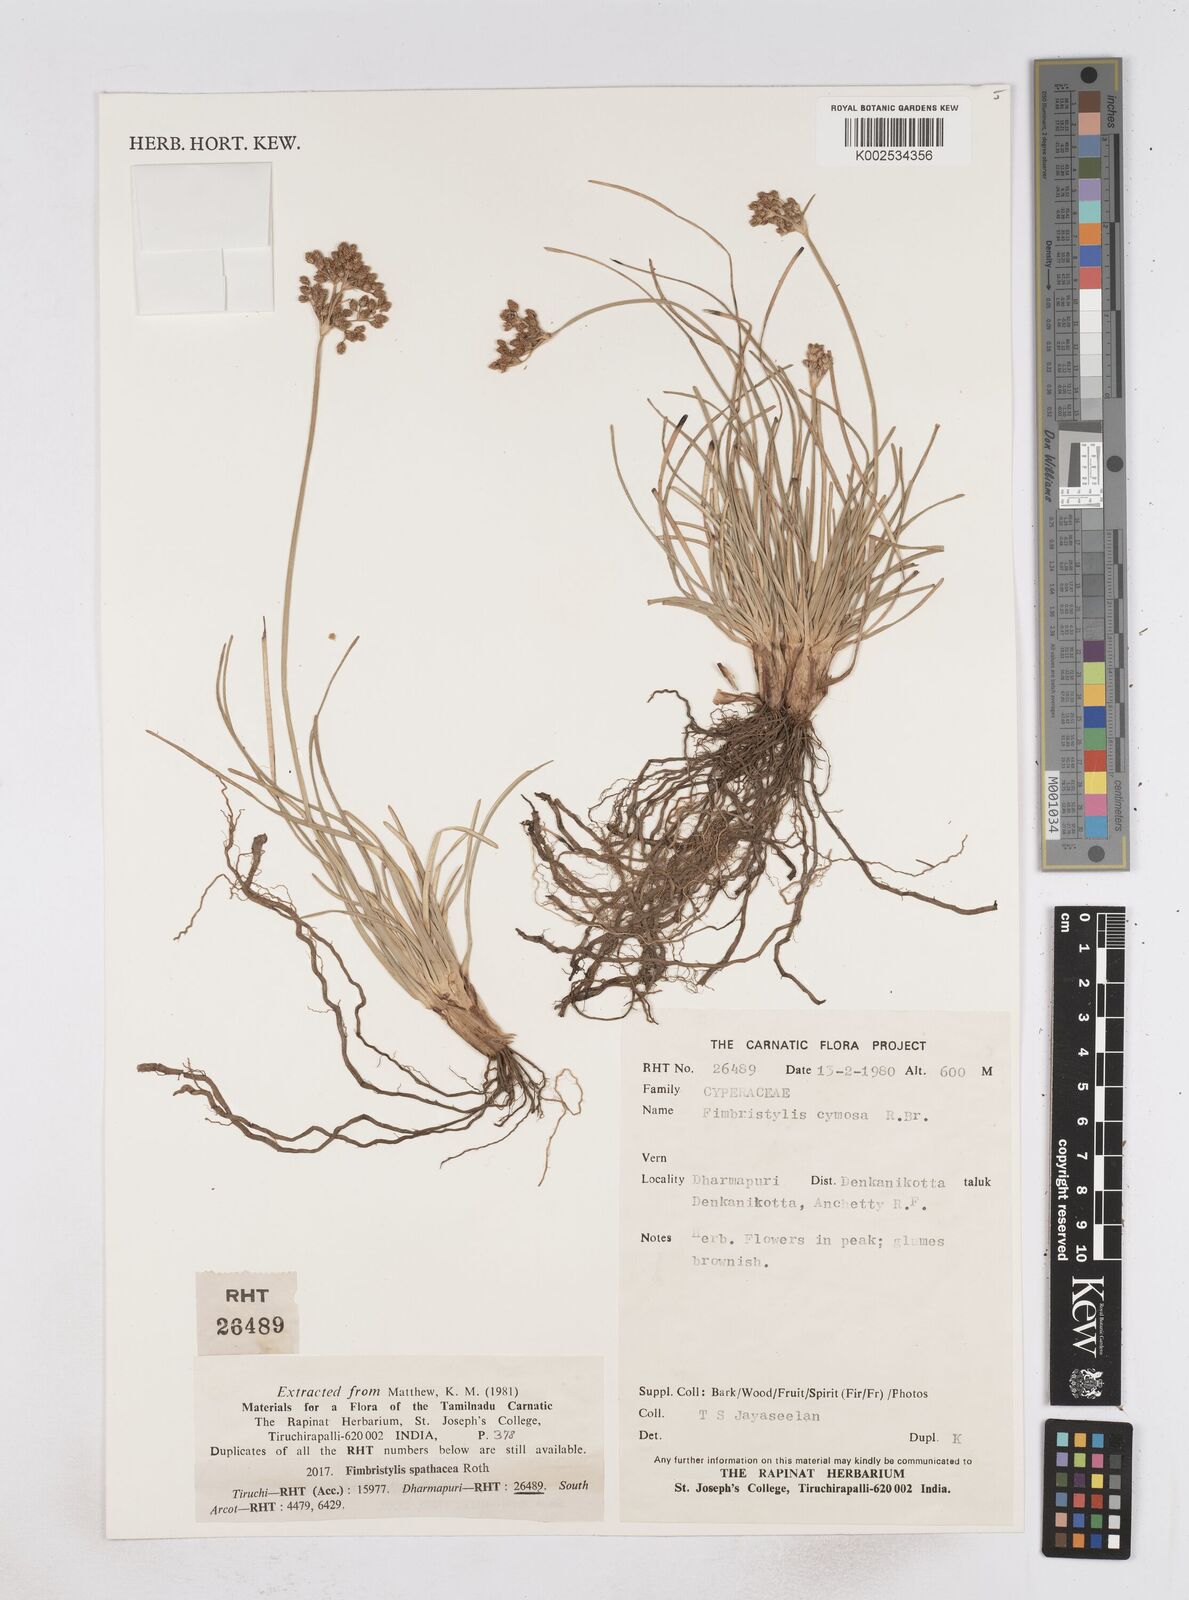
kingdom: Plantae
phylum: Tracheophyta
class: Liliopsida
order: Poales
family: Cyperaceae
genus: Fimbristylis
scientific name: Fimbristylis cymosa
